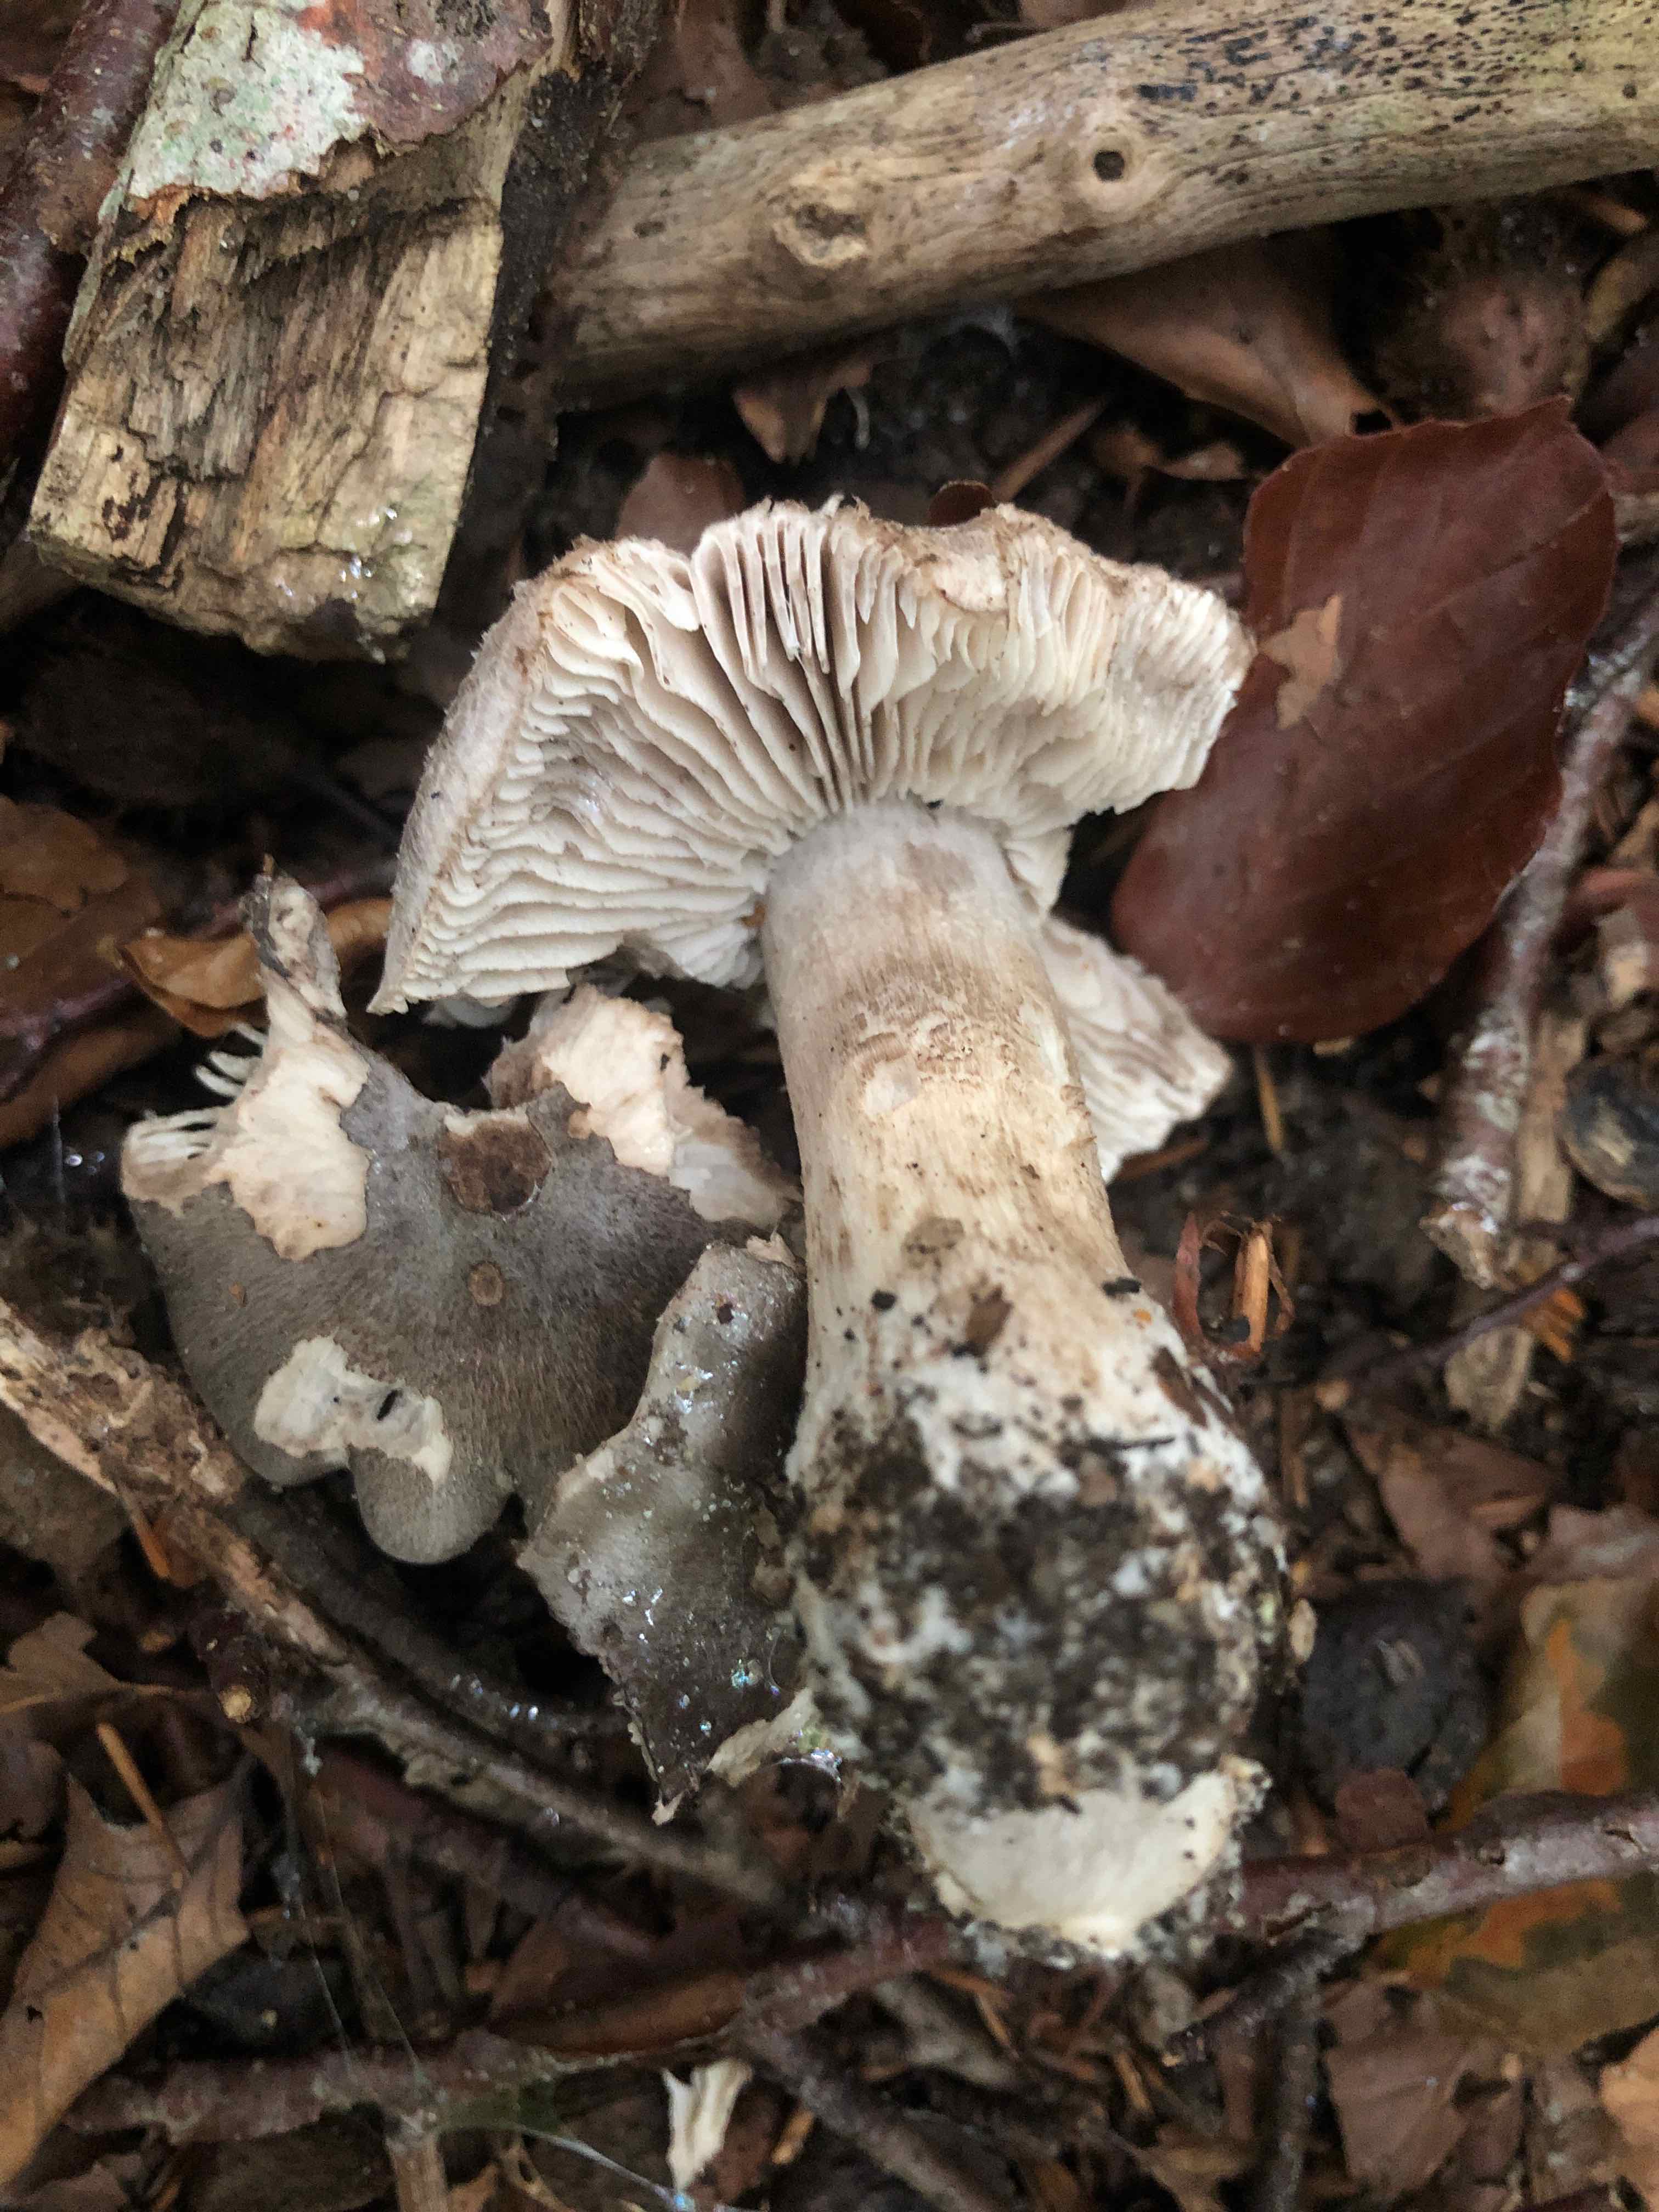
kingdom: Fungi
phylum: Basidiomycota
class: Agaricomycetes
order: Agaricales
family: Tricholomataceae
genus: Tricholoma
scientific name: Tricholoma sciodes
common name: stribet ridderhat
